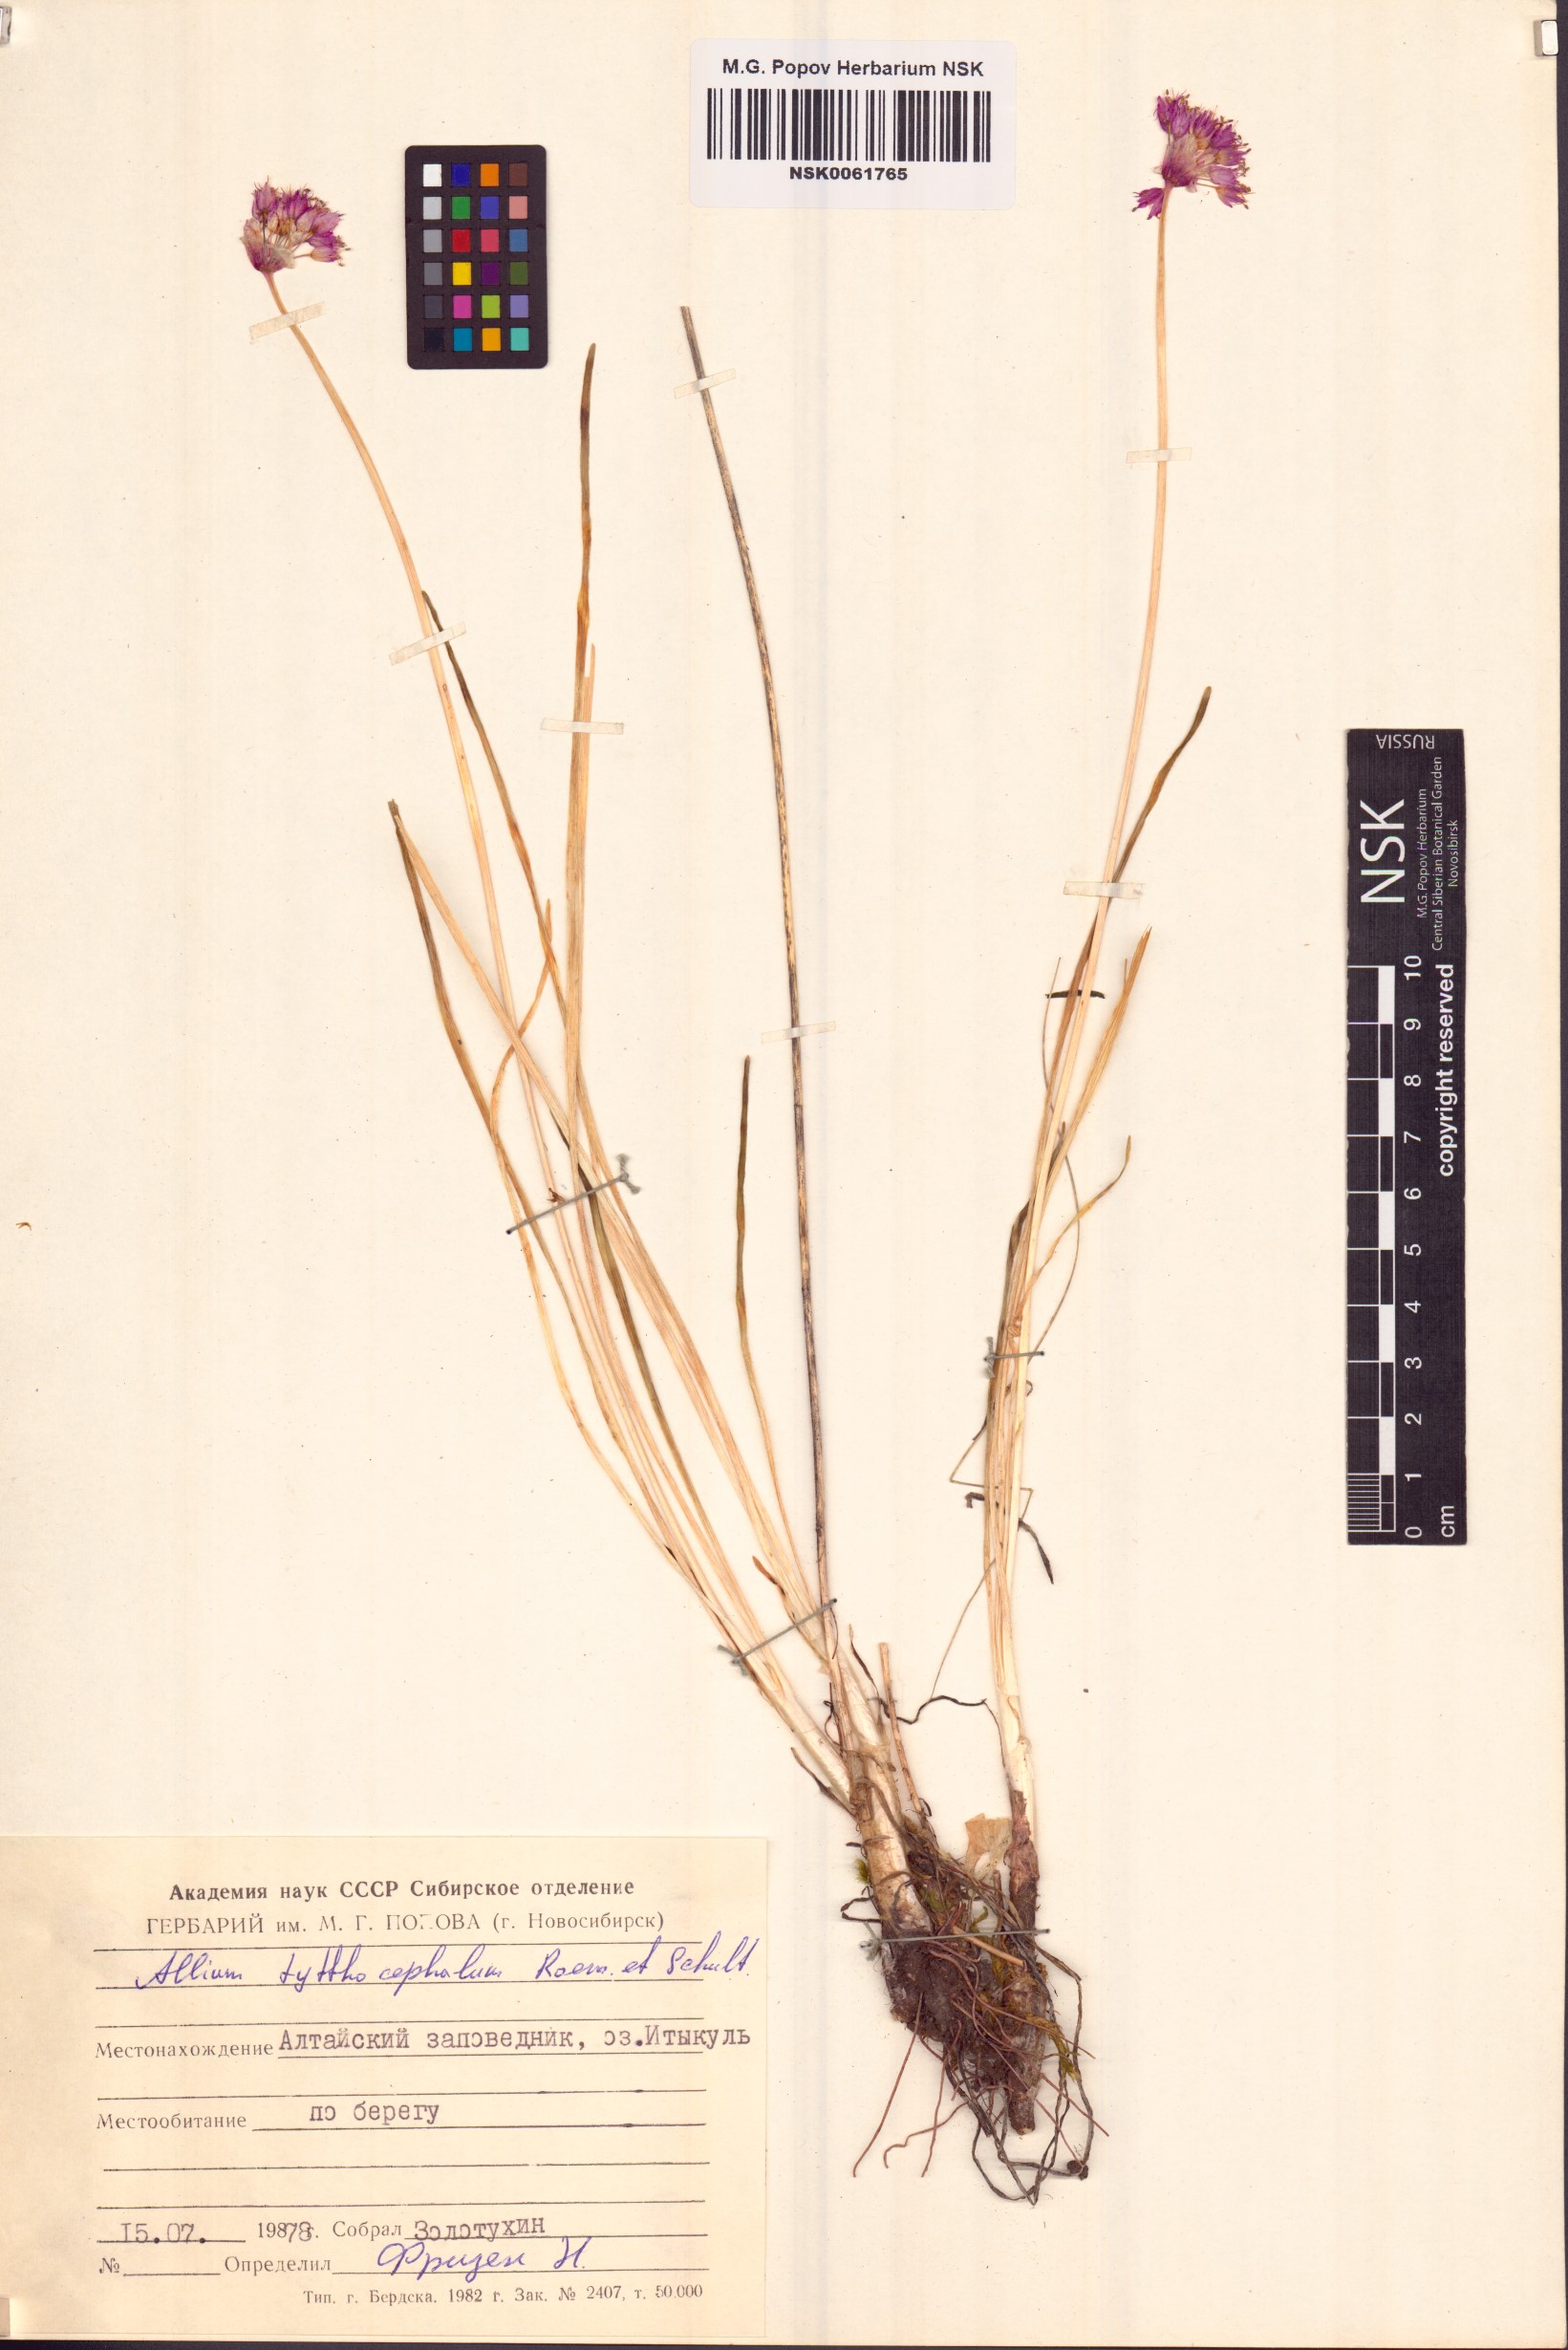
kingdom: Plantae
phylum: Tracheophyta
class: Liliopsida
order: Asparagales
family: Amaryllidaceae
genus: Allium
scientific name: Allium tytthocephalum
